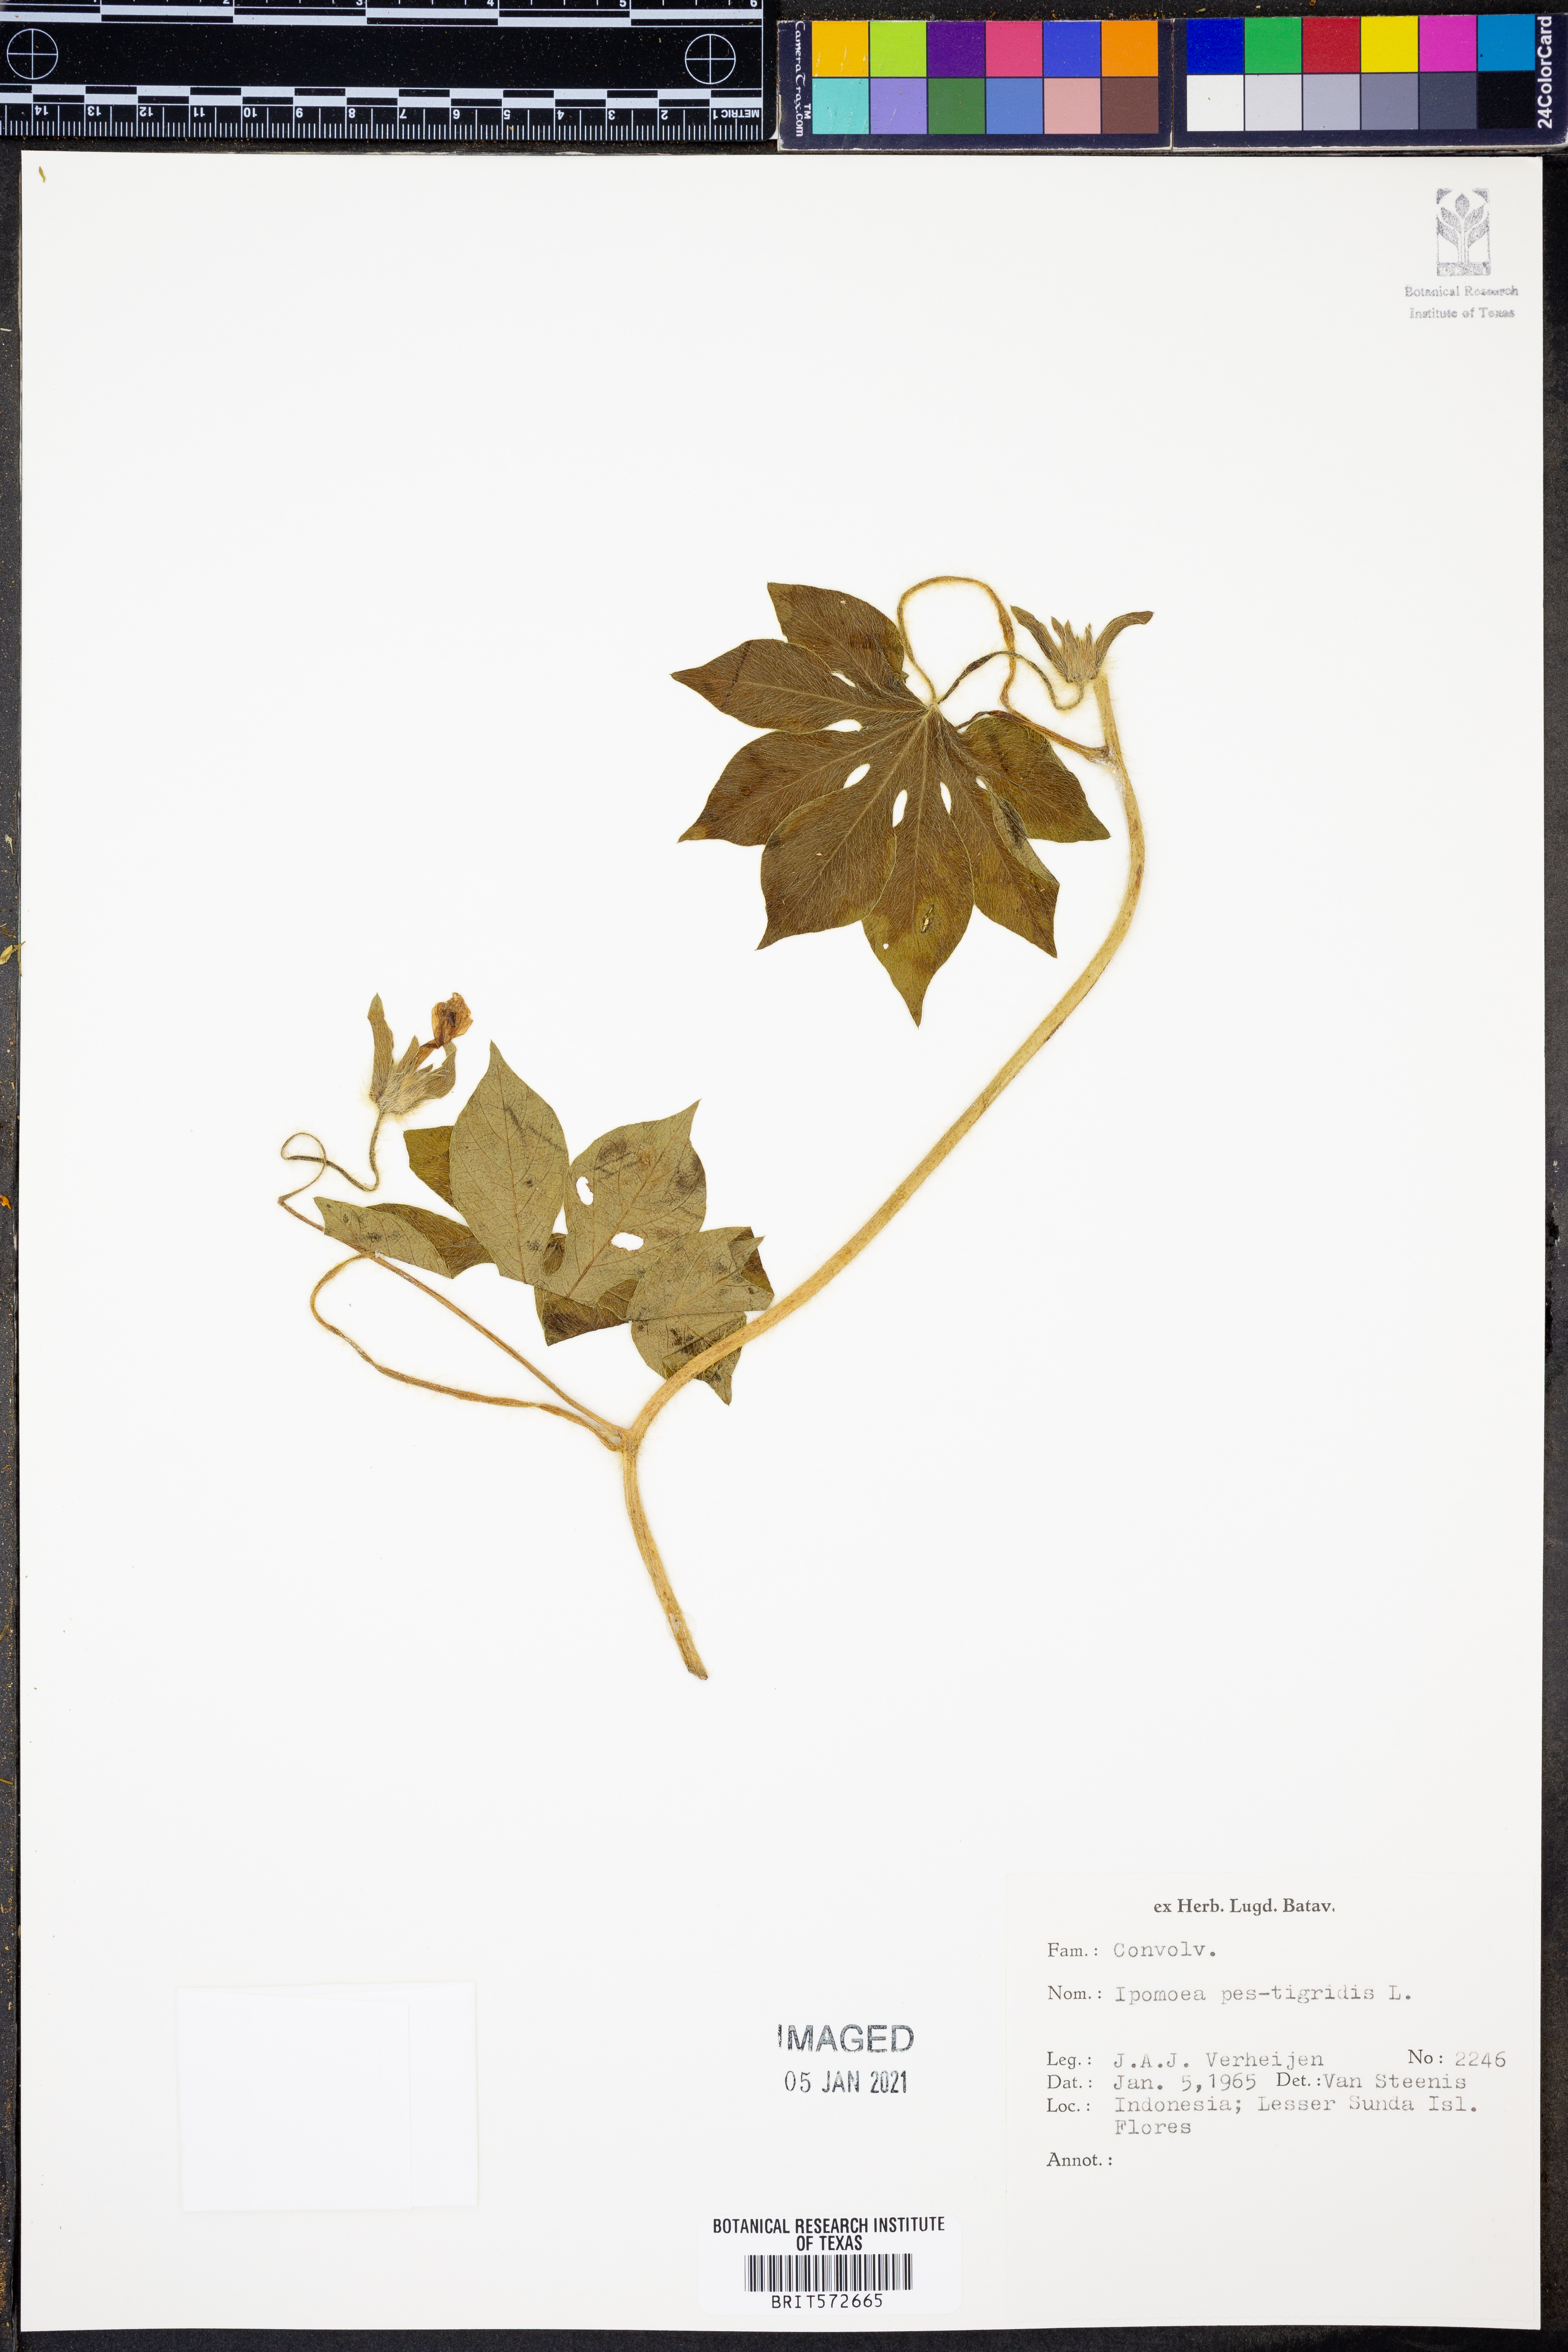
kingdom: Plantae
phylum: Tracheophyta
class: Magnoliopsida
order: Solanales
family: Convolvulaceae
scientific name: Convolvulaceae
